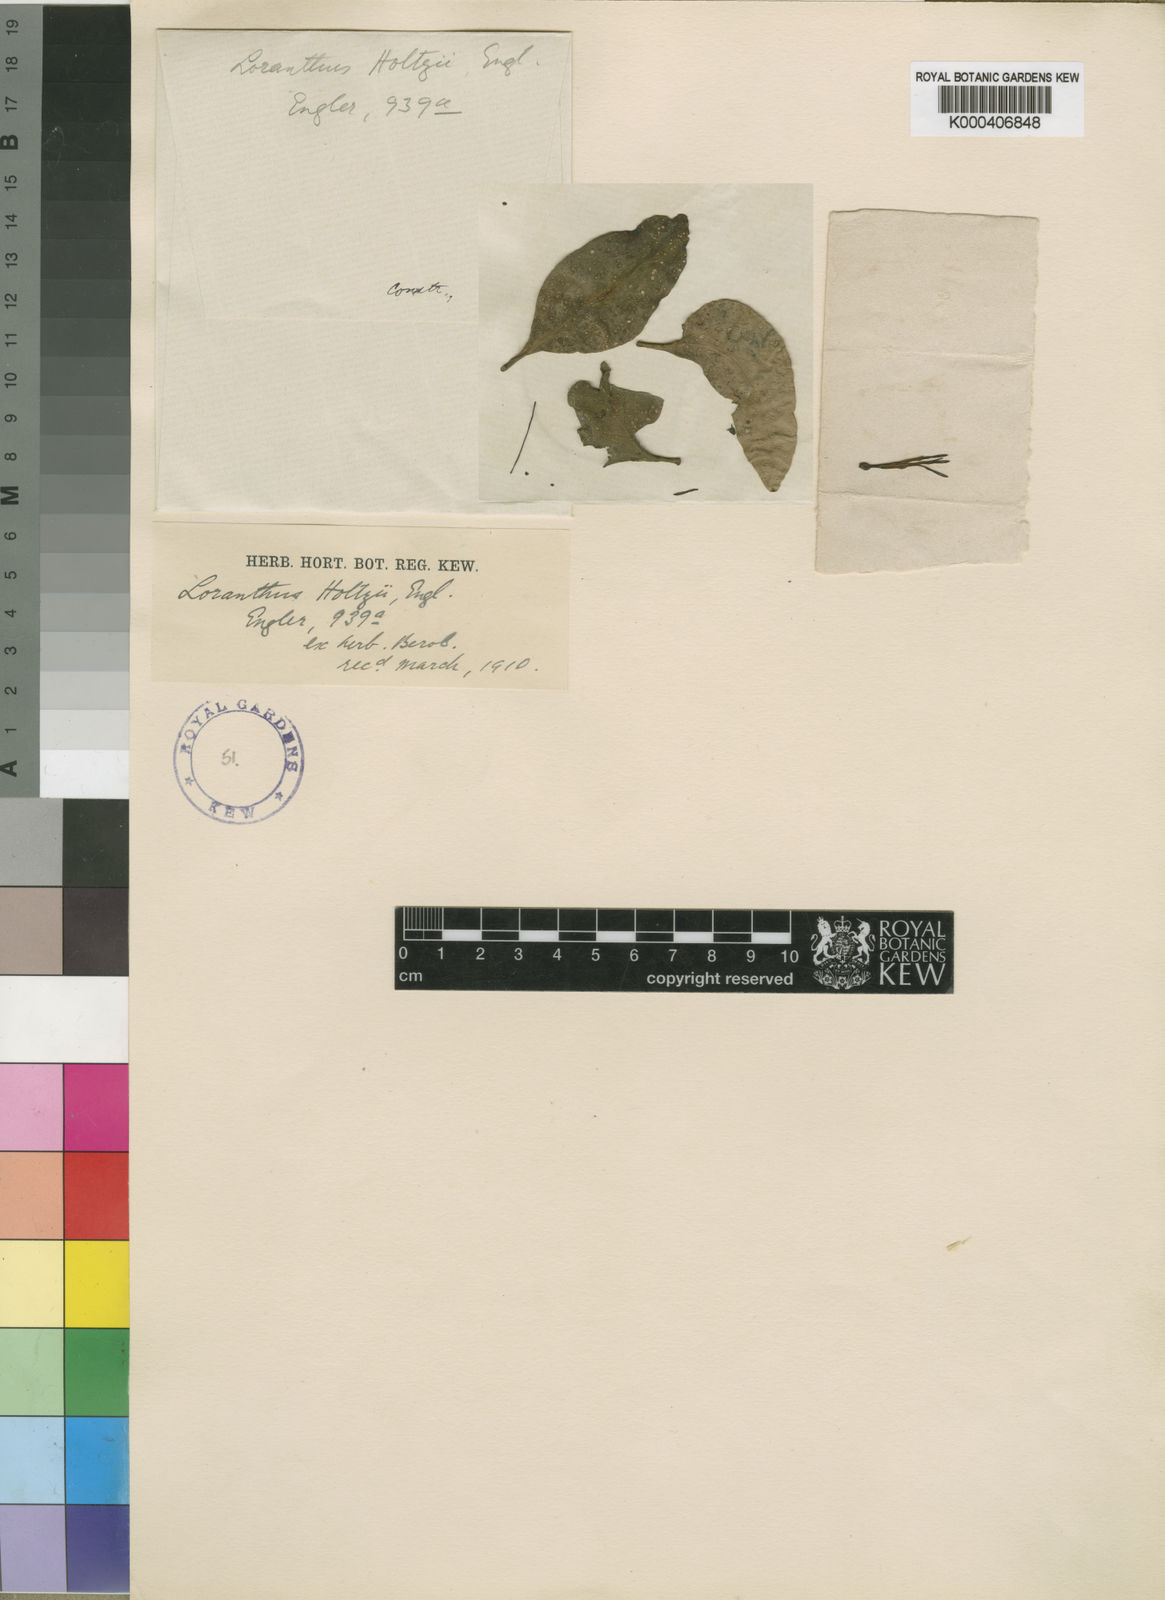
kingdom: Plantae
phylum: Tracheophyta
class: Magnoliopsida
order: Santalales
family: Loranthaceae
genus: Loranthella
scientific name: Loranthella kilimandscharica
